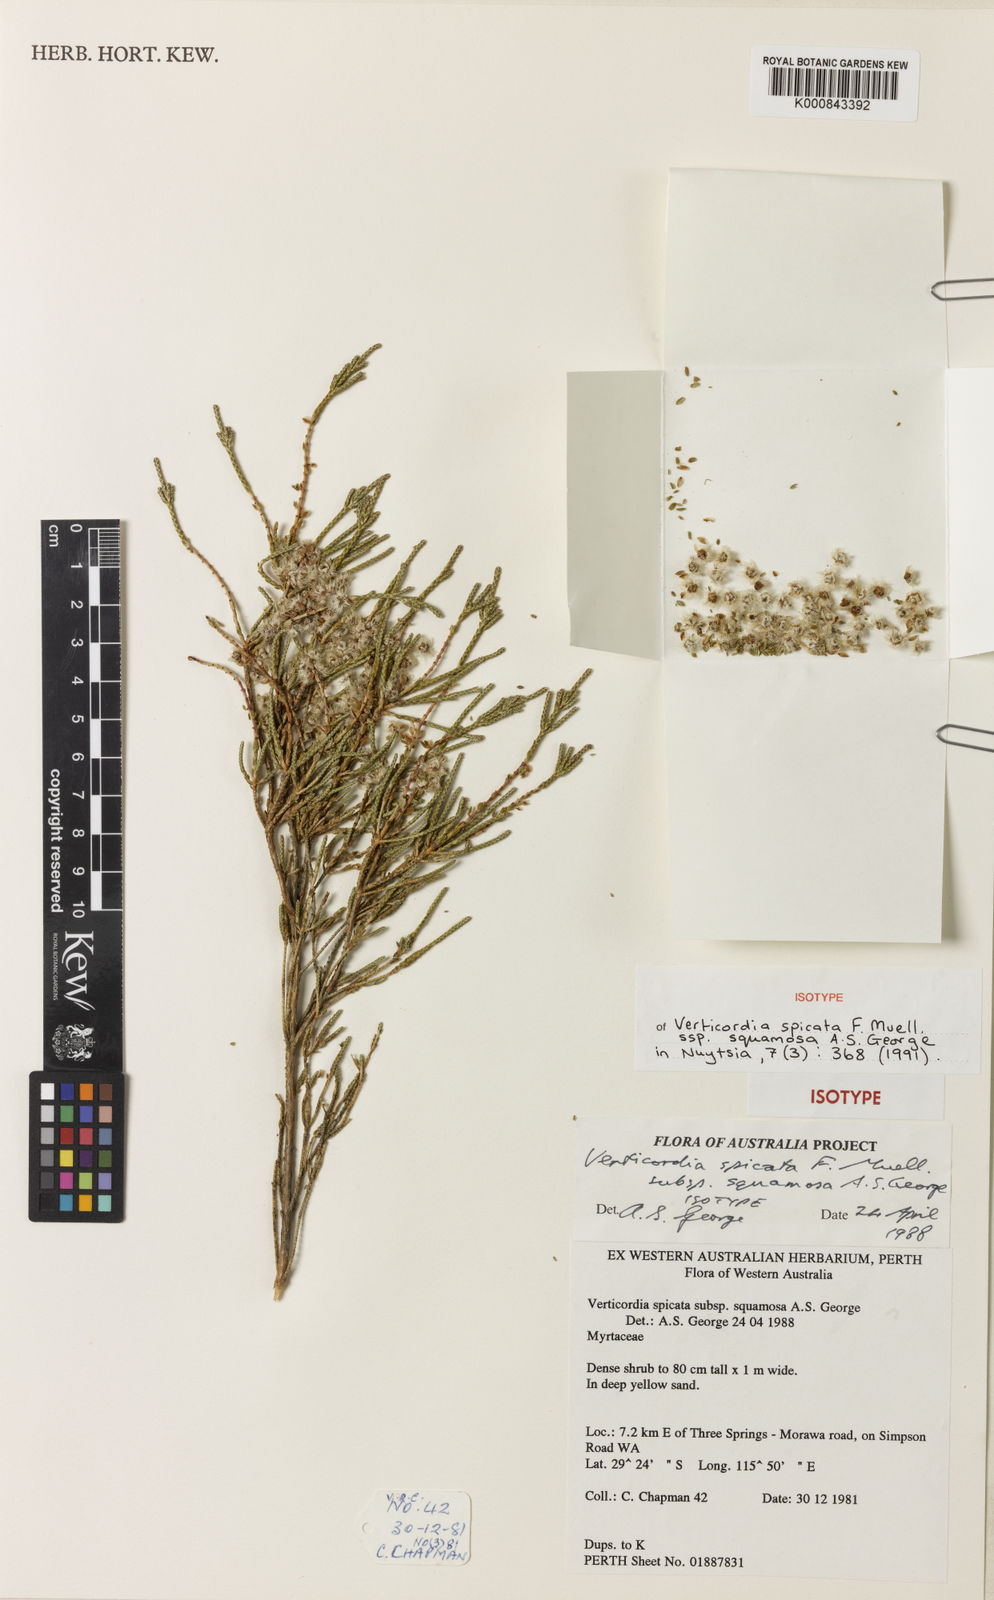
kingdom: Plantae
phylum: Tracheophyta
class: Magnoliopsida
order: Myrtales
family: Myrtaceae
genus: Verticordia
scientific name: Verticordia spicata
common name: Spike feather-flower
